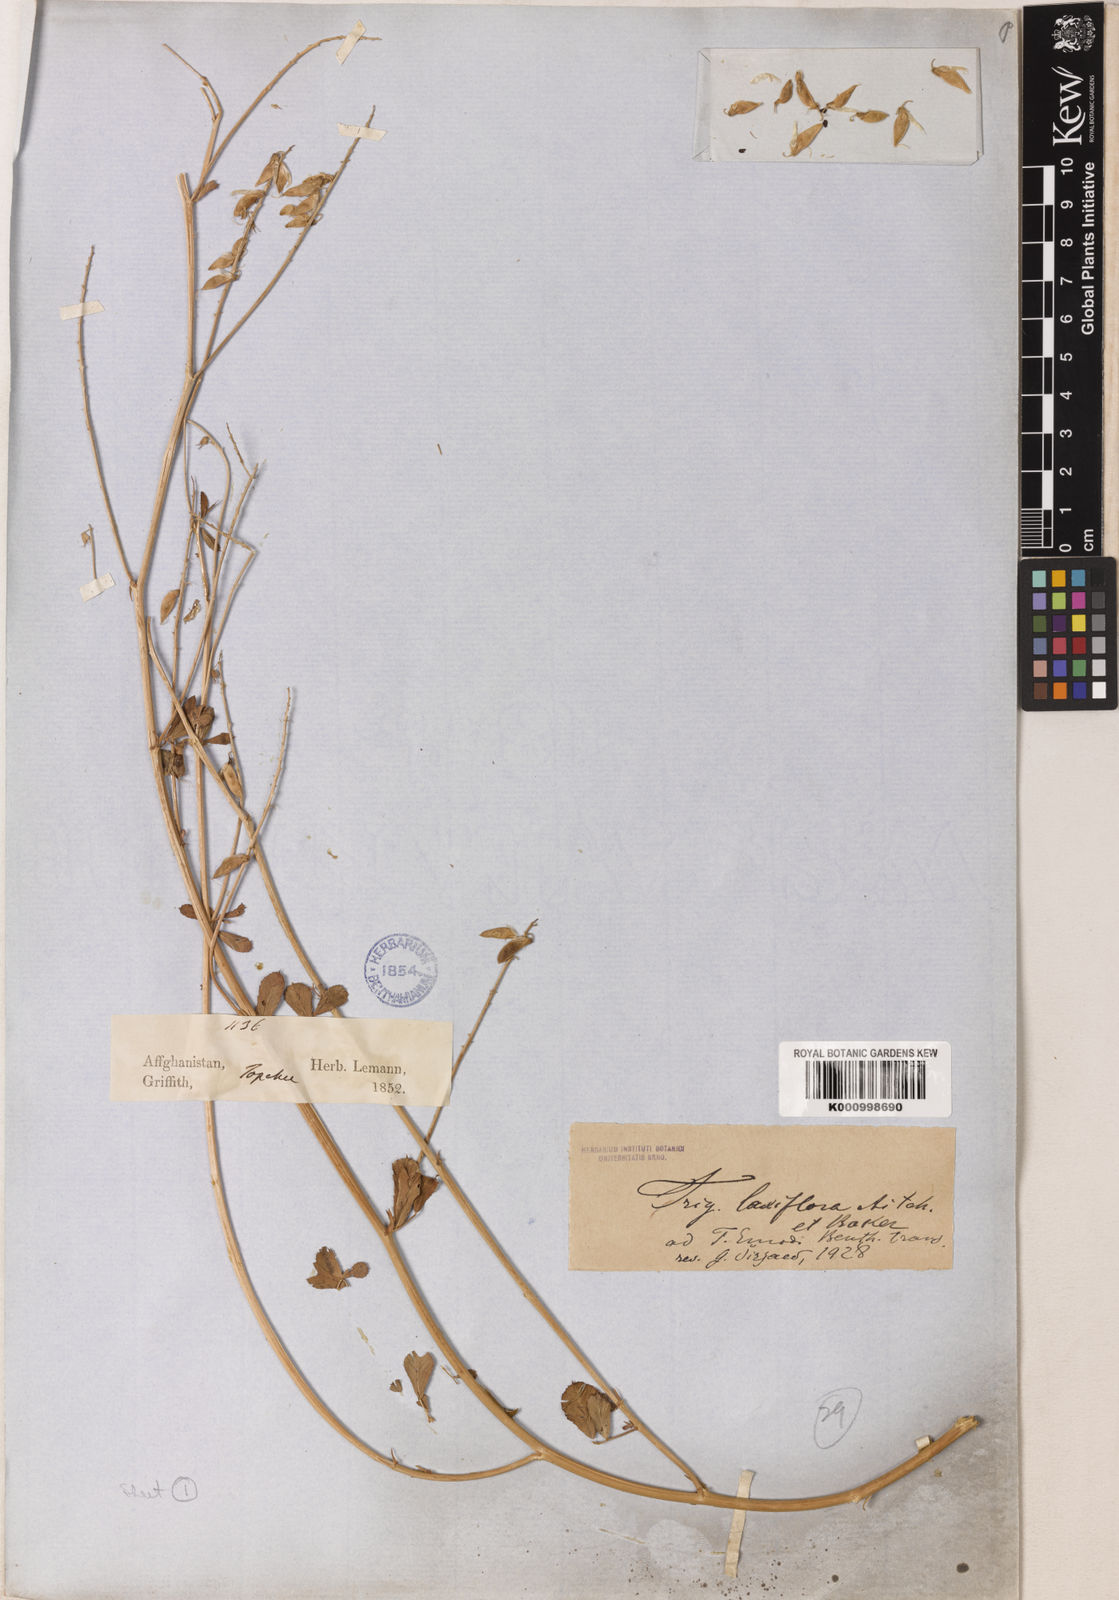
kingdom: Plantae
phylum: Tracheophyta
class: Magnoliopsida
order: Fabales
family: Fabaceae
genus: Trigonella
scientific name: Trigonella laxiflora
